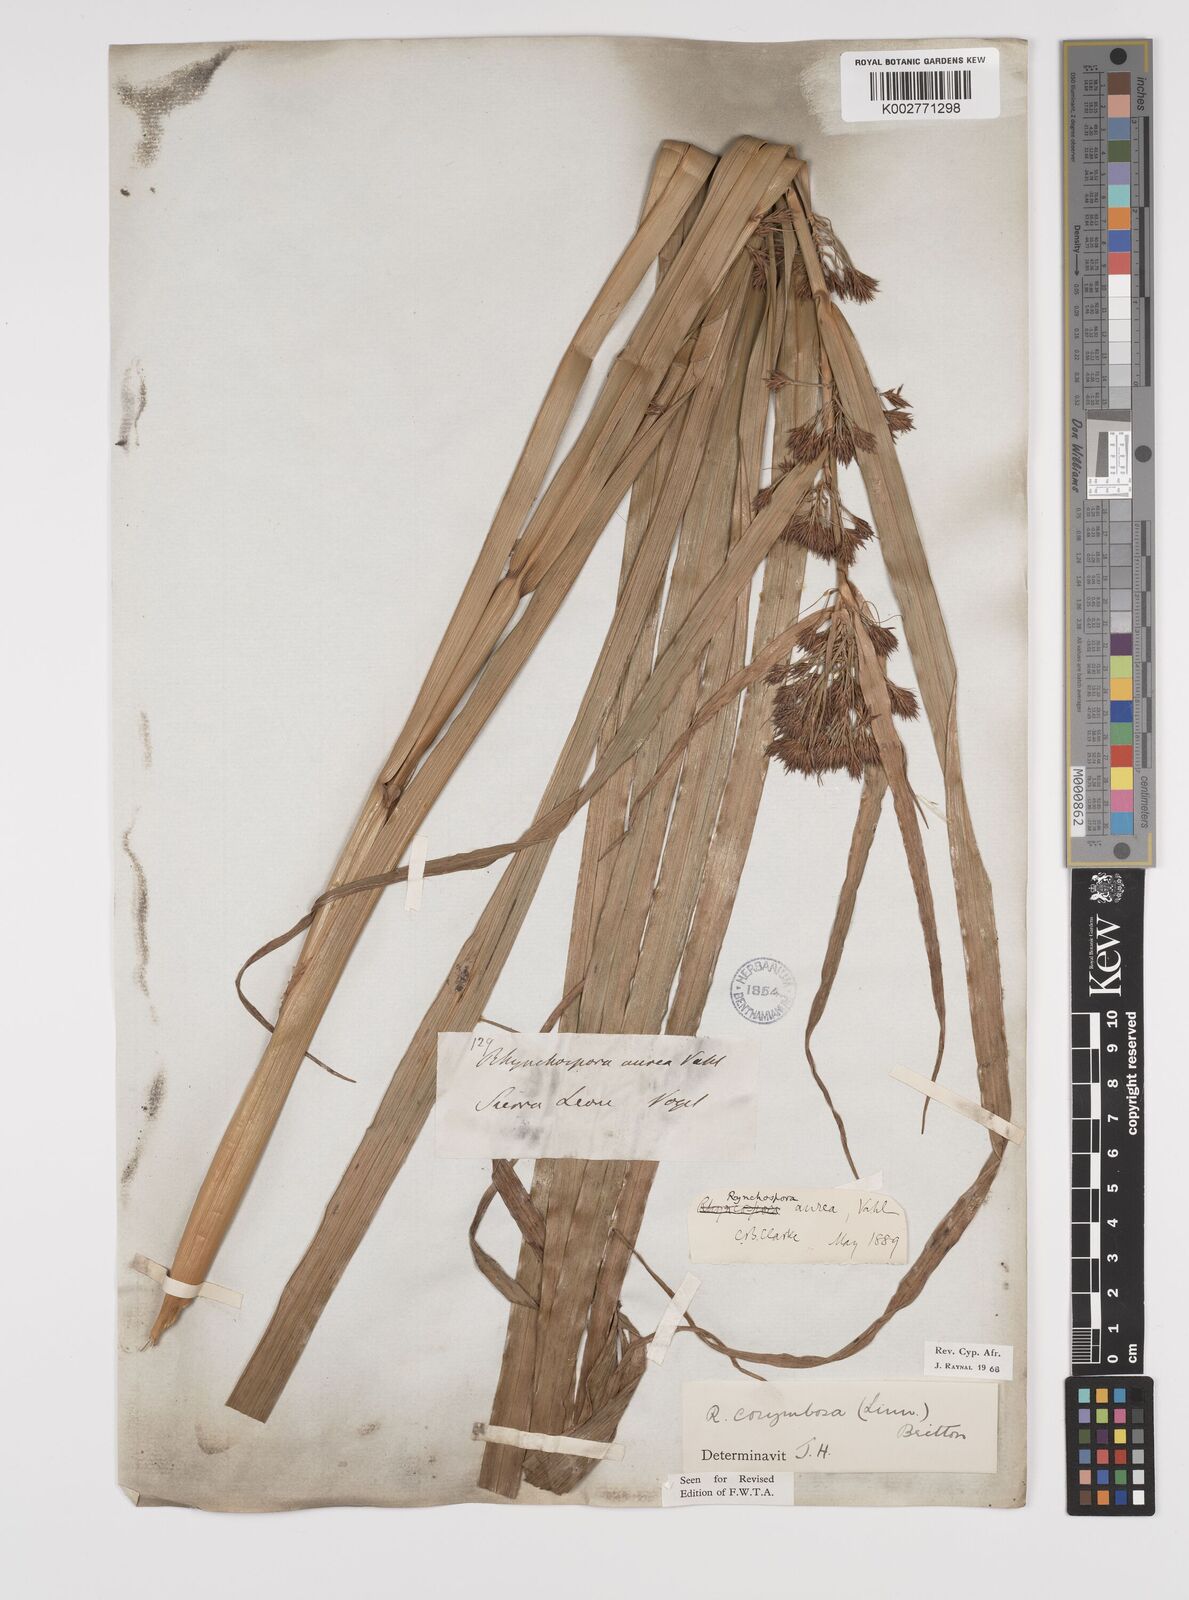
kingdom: Plantae
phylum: Tracheophyta
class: Liliopsida
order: Poales
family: Cyperaceae
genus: Rhynchospora
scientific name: Rhynchospora corymbosa
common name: Golden beak sedge
